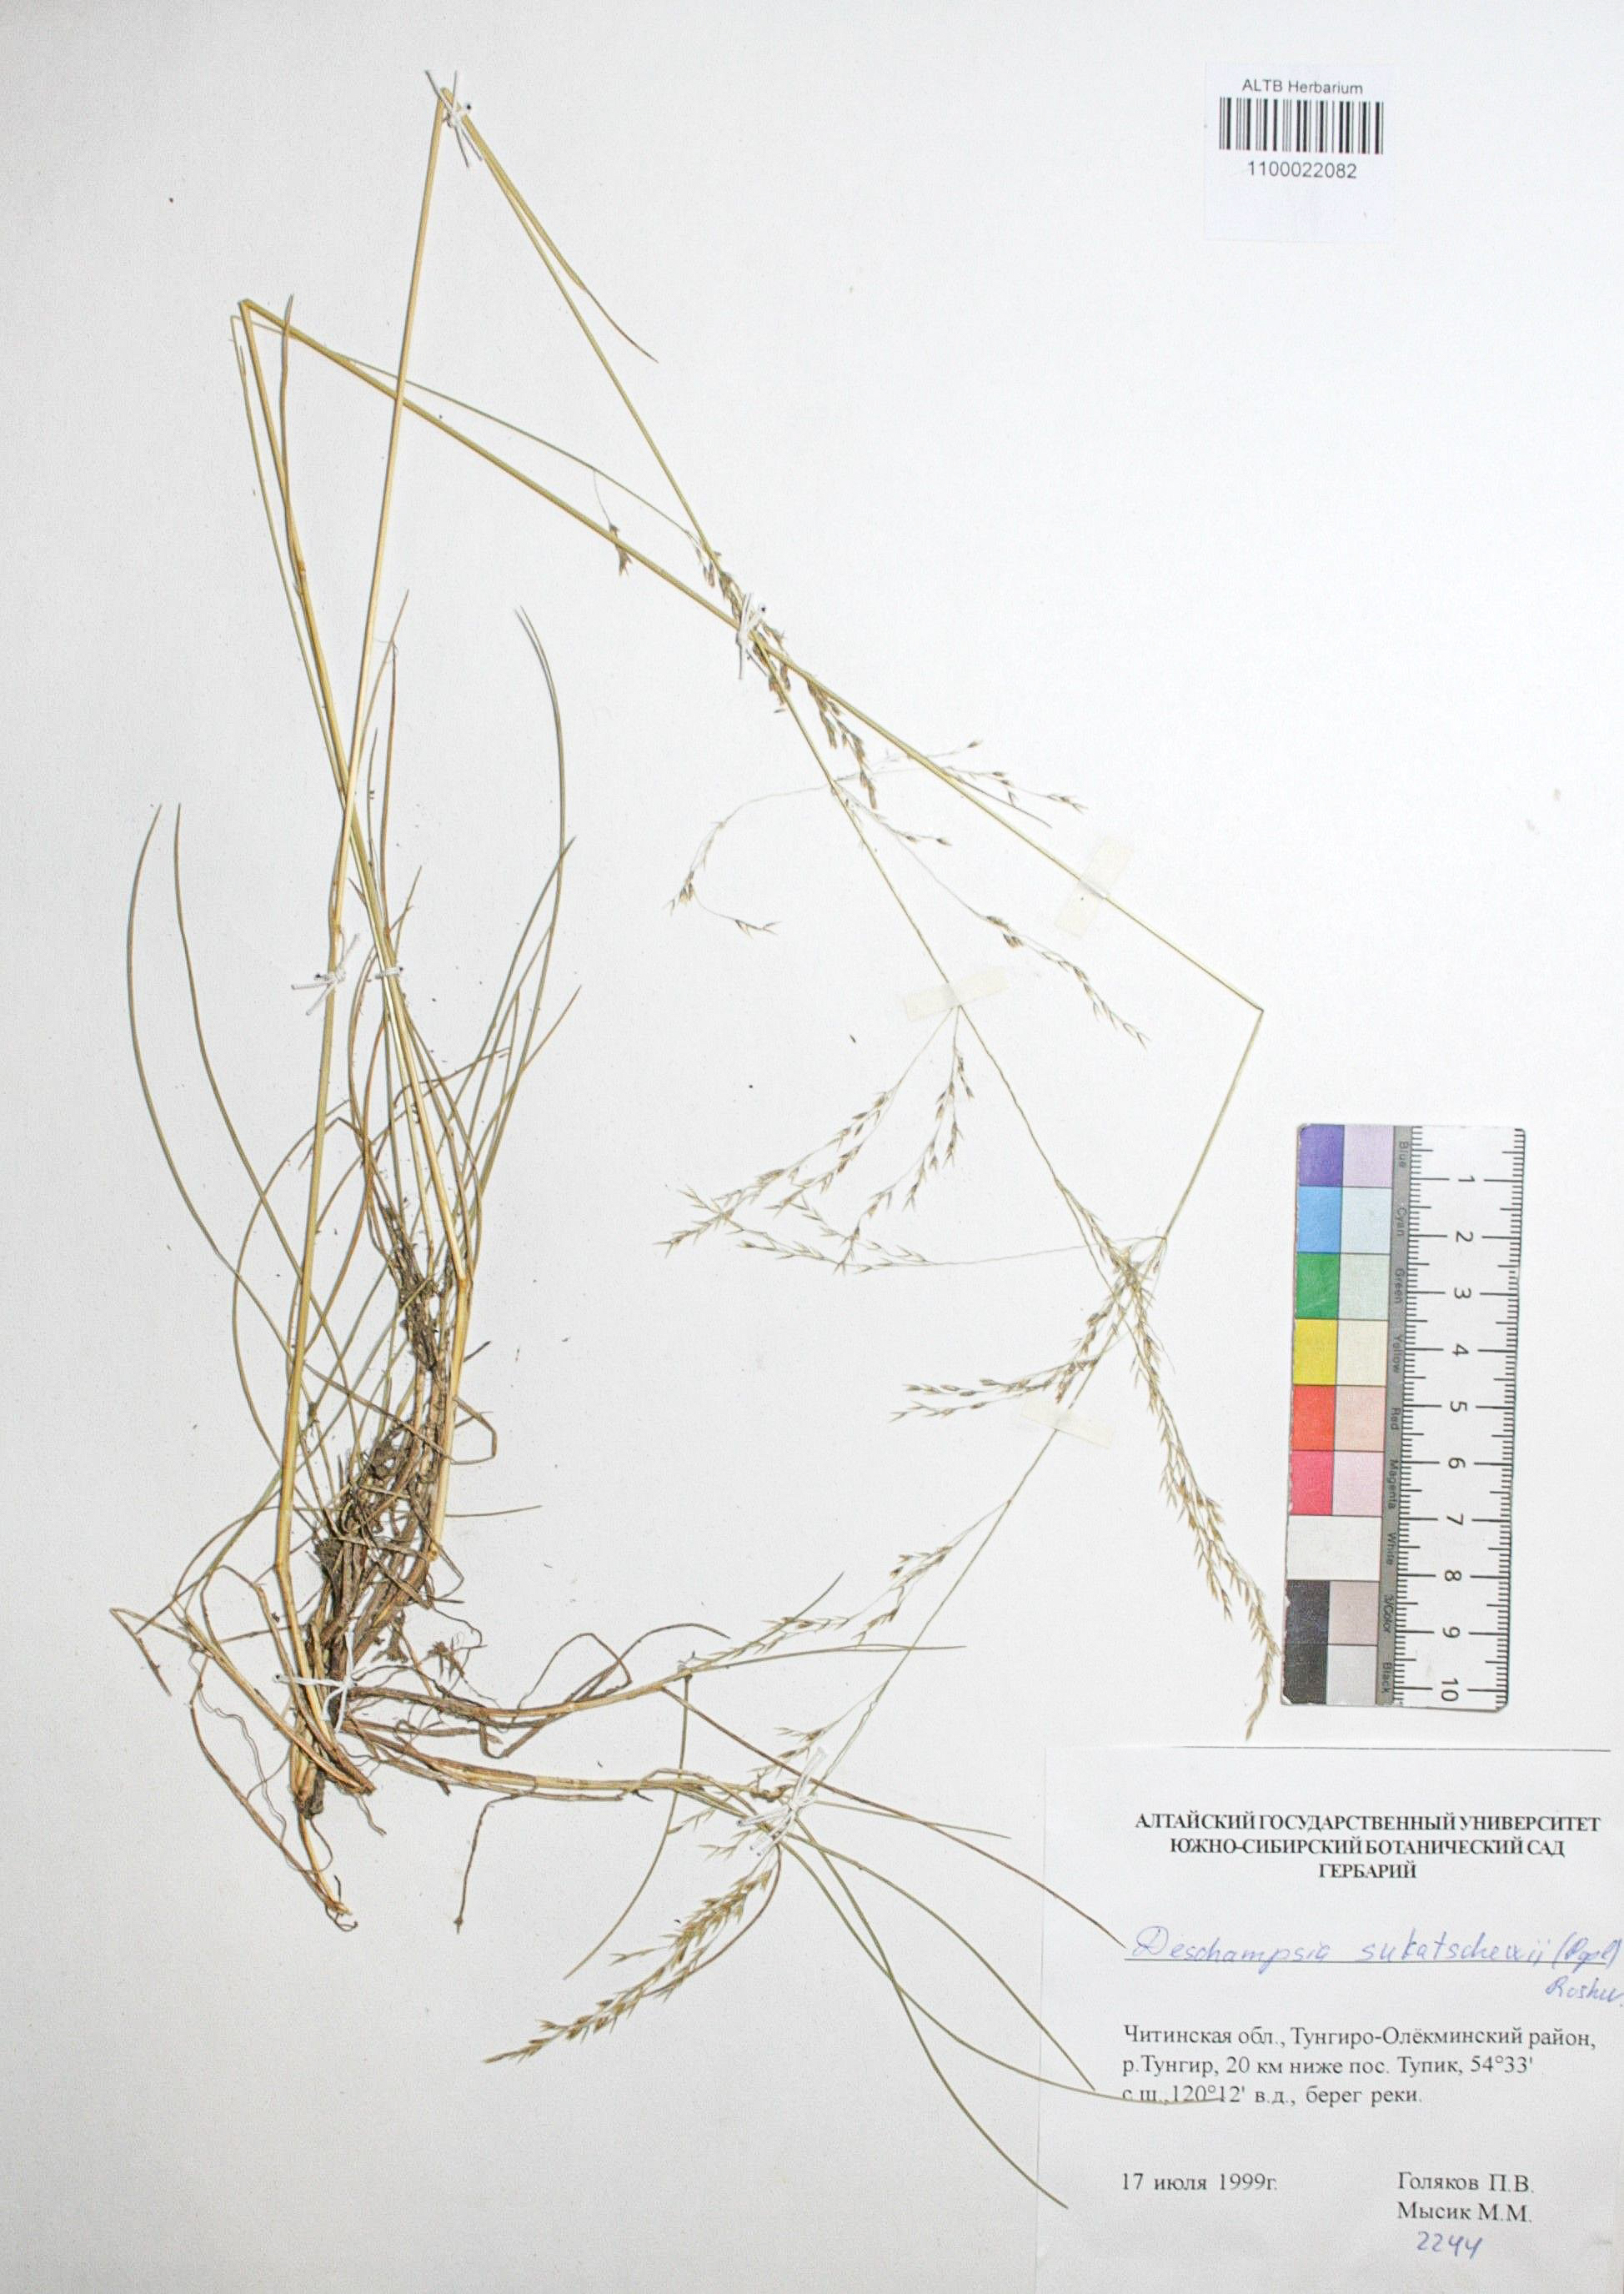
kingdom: Plantae
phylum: Tracheophyta
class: Liliopsida
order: Poales
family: Poaceae
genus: Deschampsia
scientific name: Deschampsia cespitosa
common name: Tufted hair-grass
